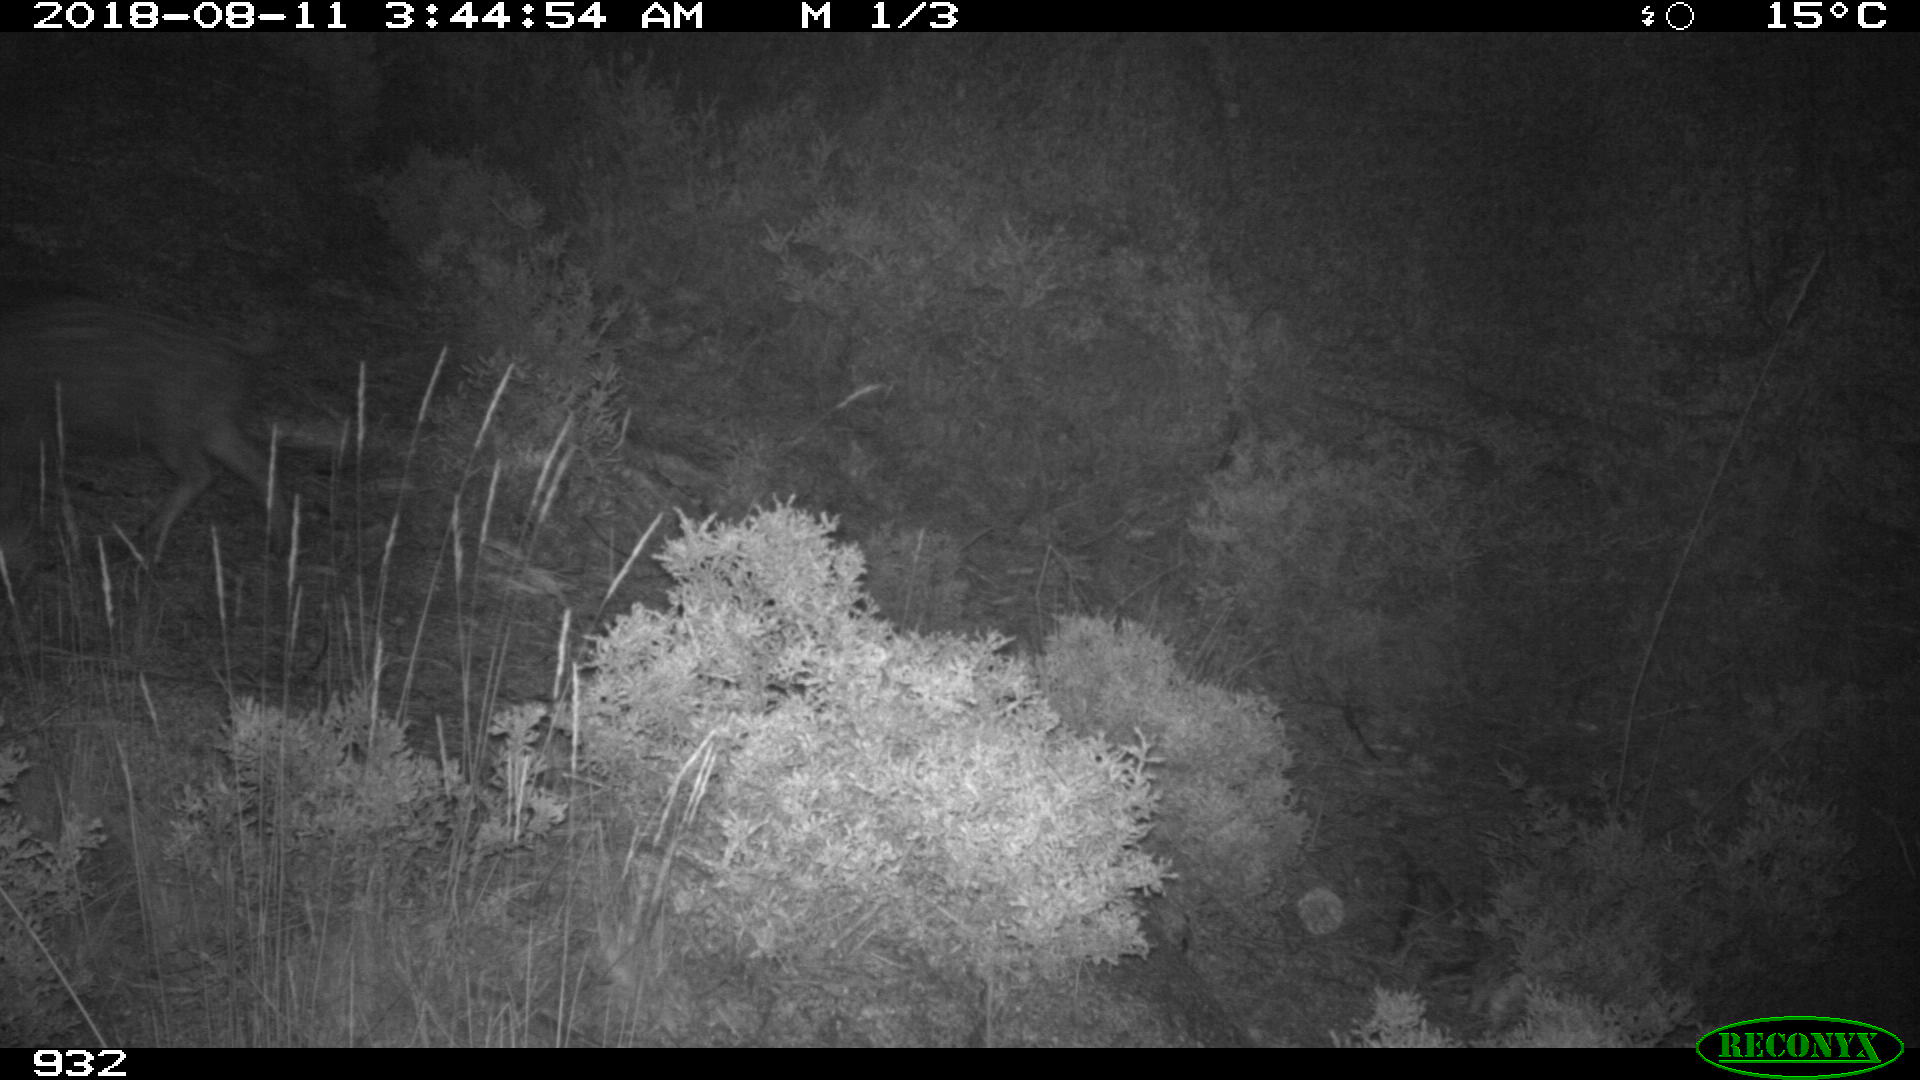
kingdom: Animalia
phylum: Chordata
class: Mammalia
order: Artiodactyla
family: Suidae
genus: Sus
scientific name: Sus scrofa
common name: Wild boar
